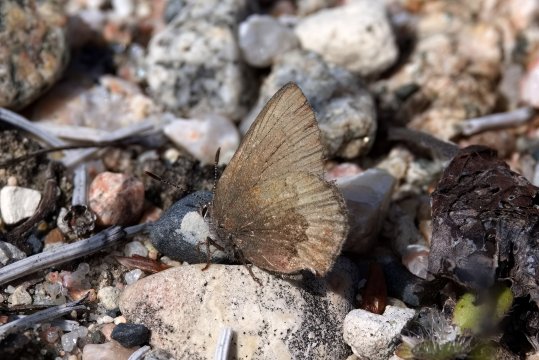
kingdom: Animalia
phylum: Arthropoda
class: Insecta
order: Lepidoptera
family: Lycaenidae
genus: Incisalia
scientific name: Incisalia irioides
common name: Brown Elfin
